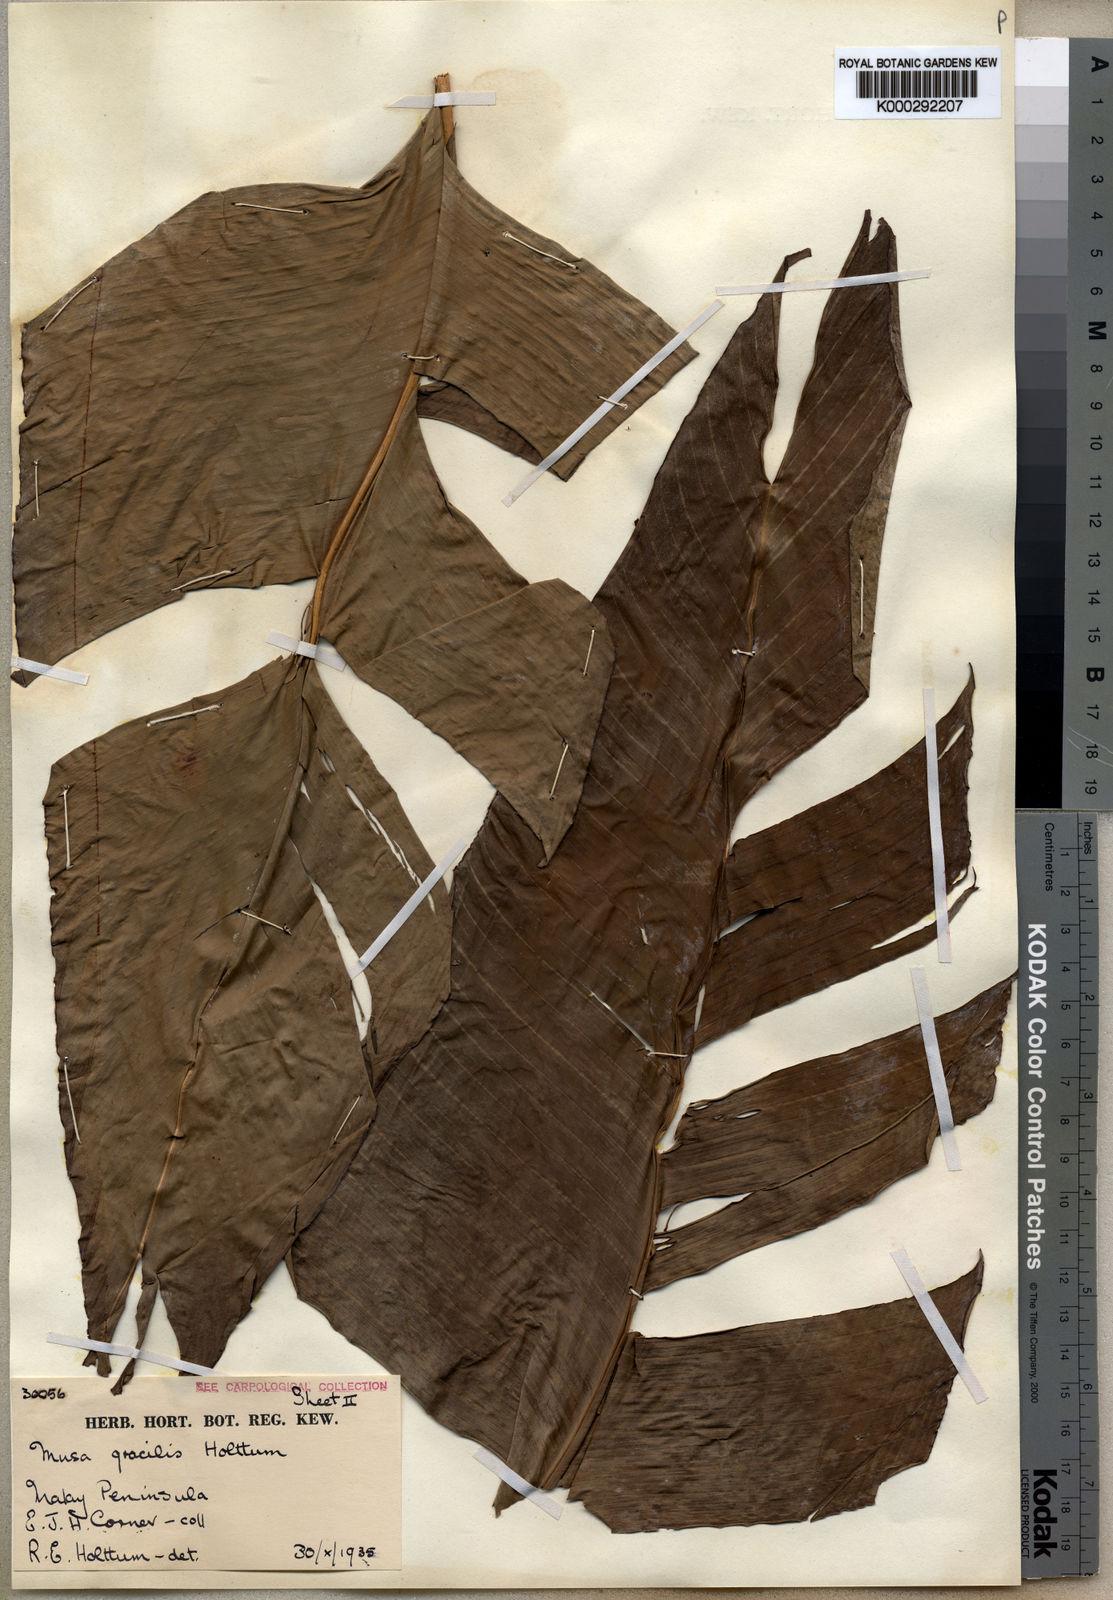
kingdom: Plantae
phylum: Tracheophyta
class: Liliopsida
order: Zingiberales
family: Musaceae
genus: Musa
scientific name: Musa gracilis
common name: Johore banana
